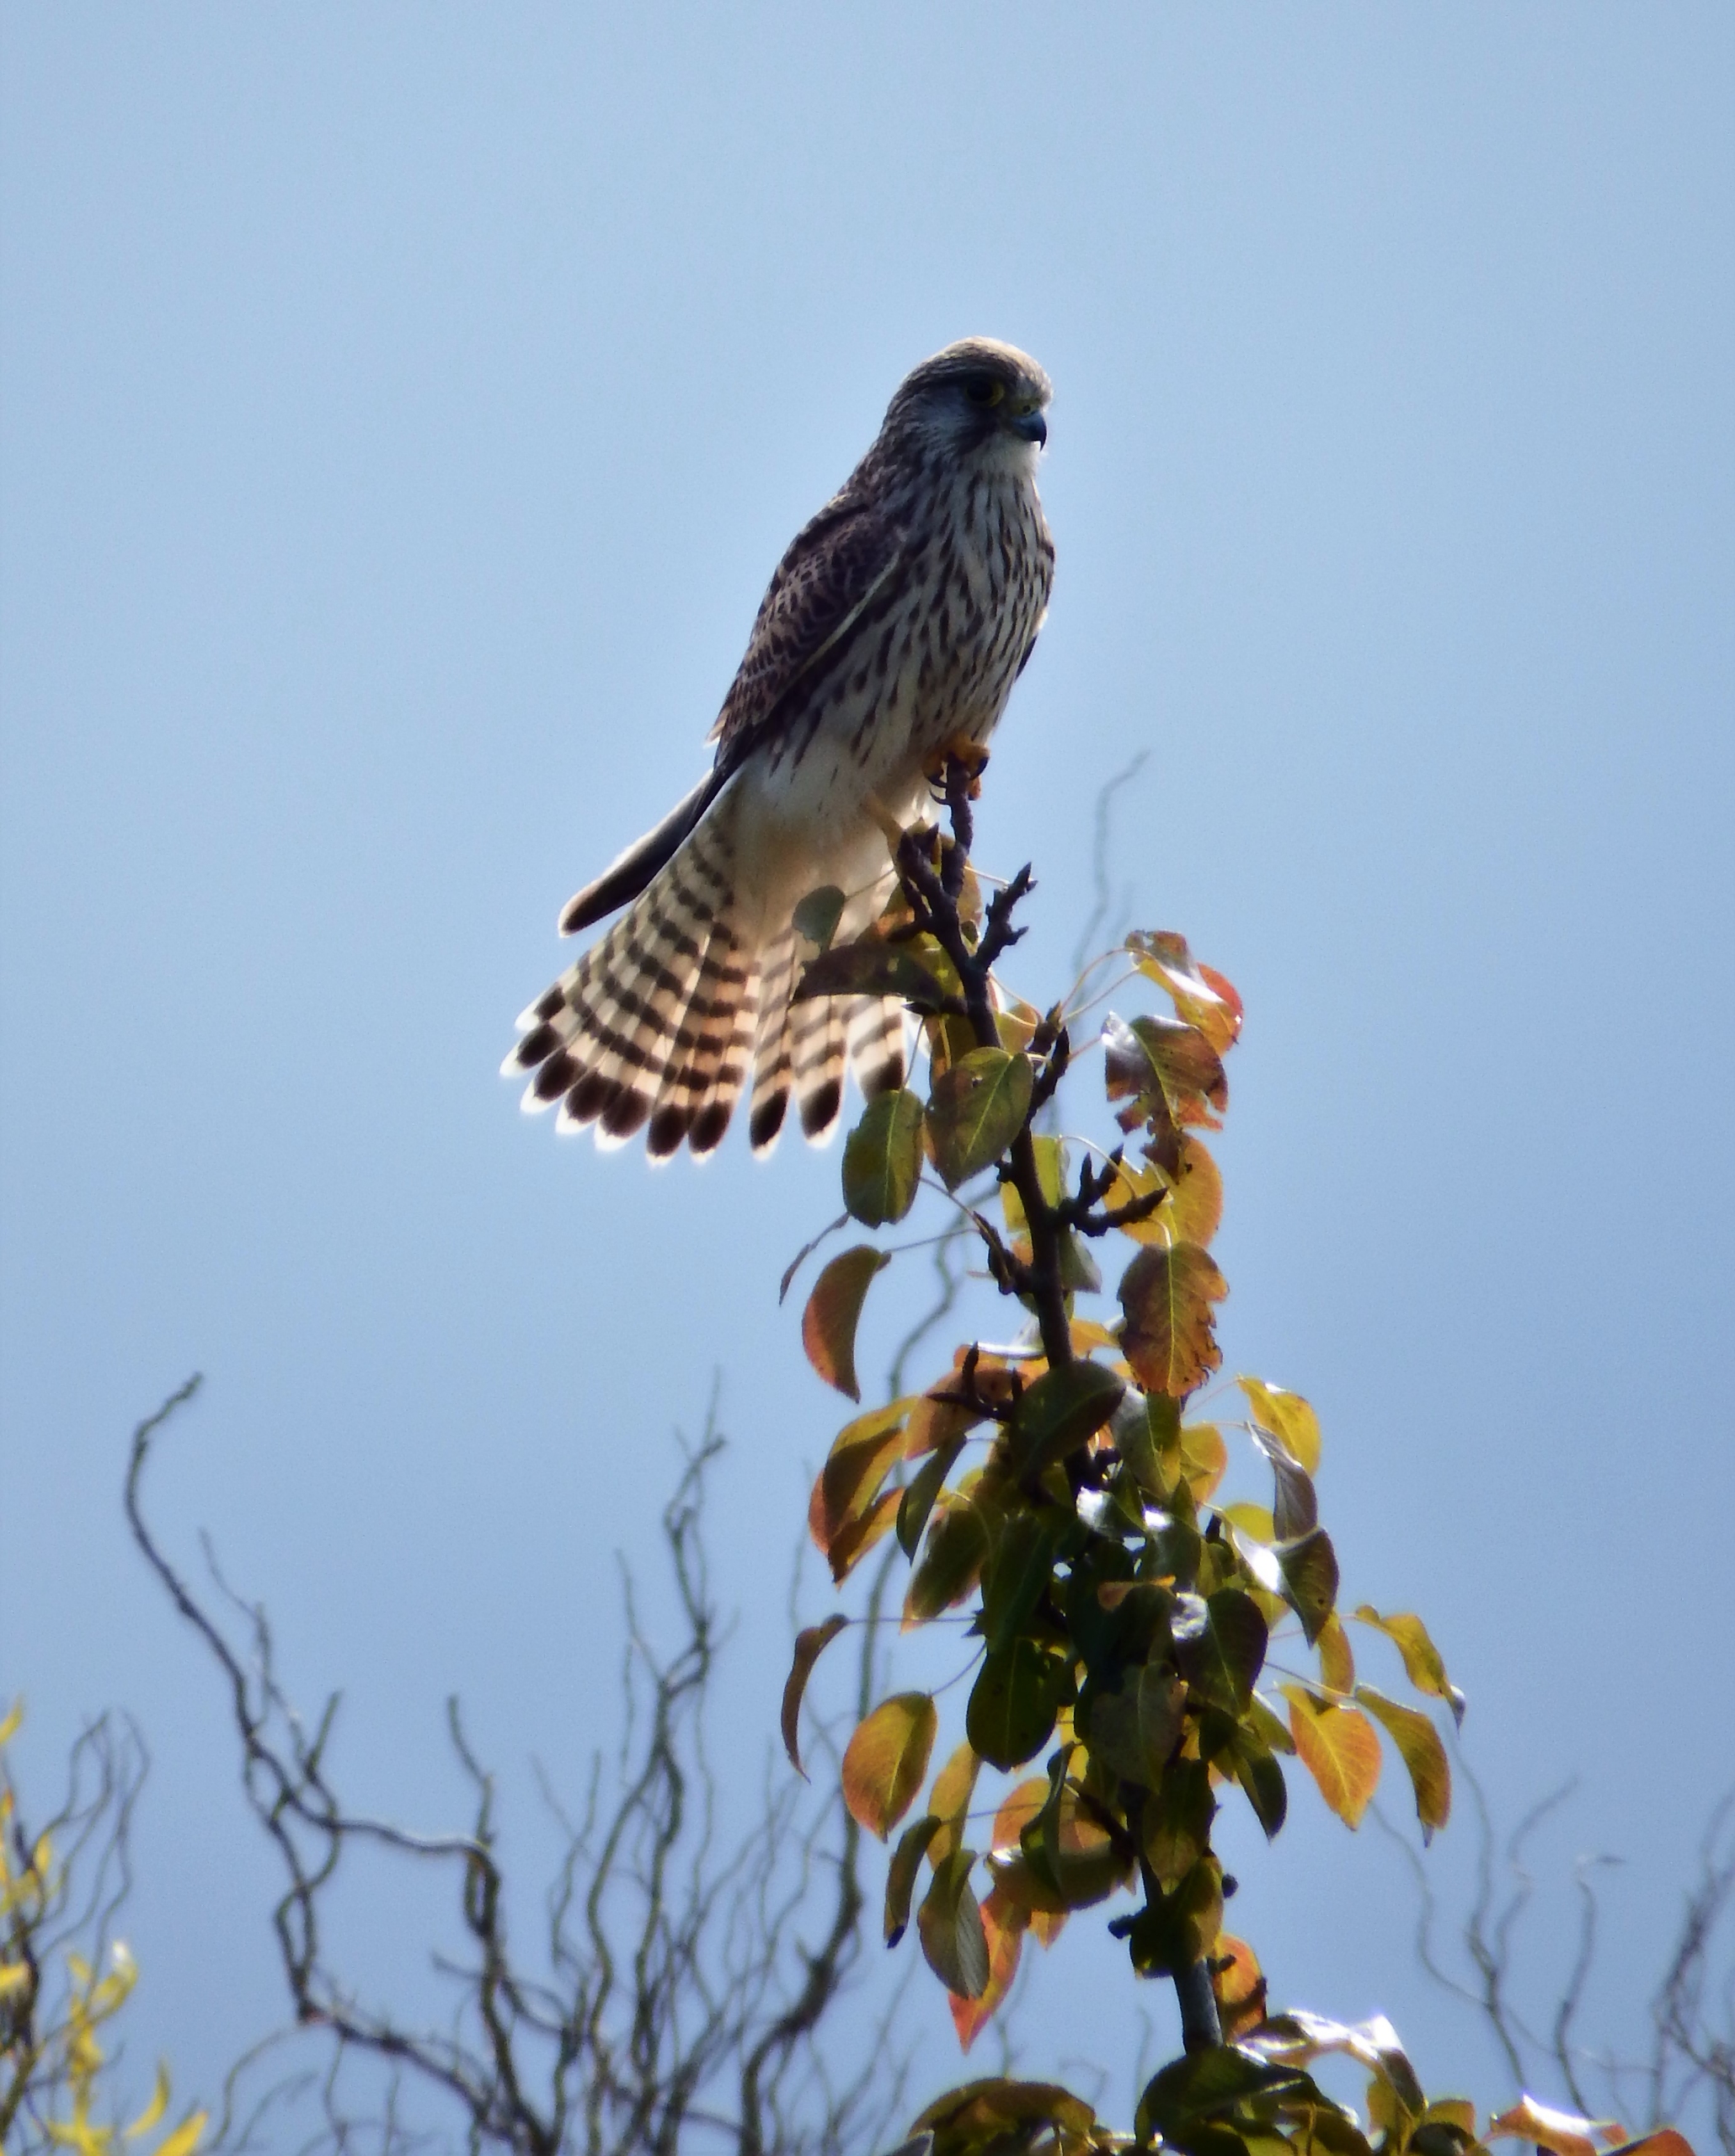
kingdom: Animalia
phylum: Chordata
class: Aves
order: Falconiformes
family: Falconidae
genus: Falco
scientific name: Falco tinnunculus
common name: Tårnfalk
